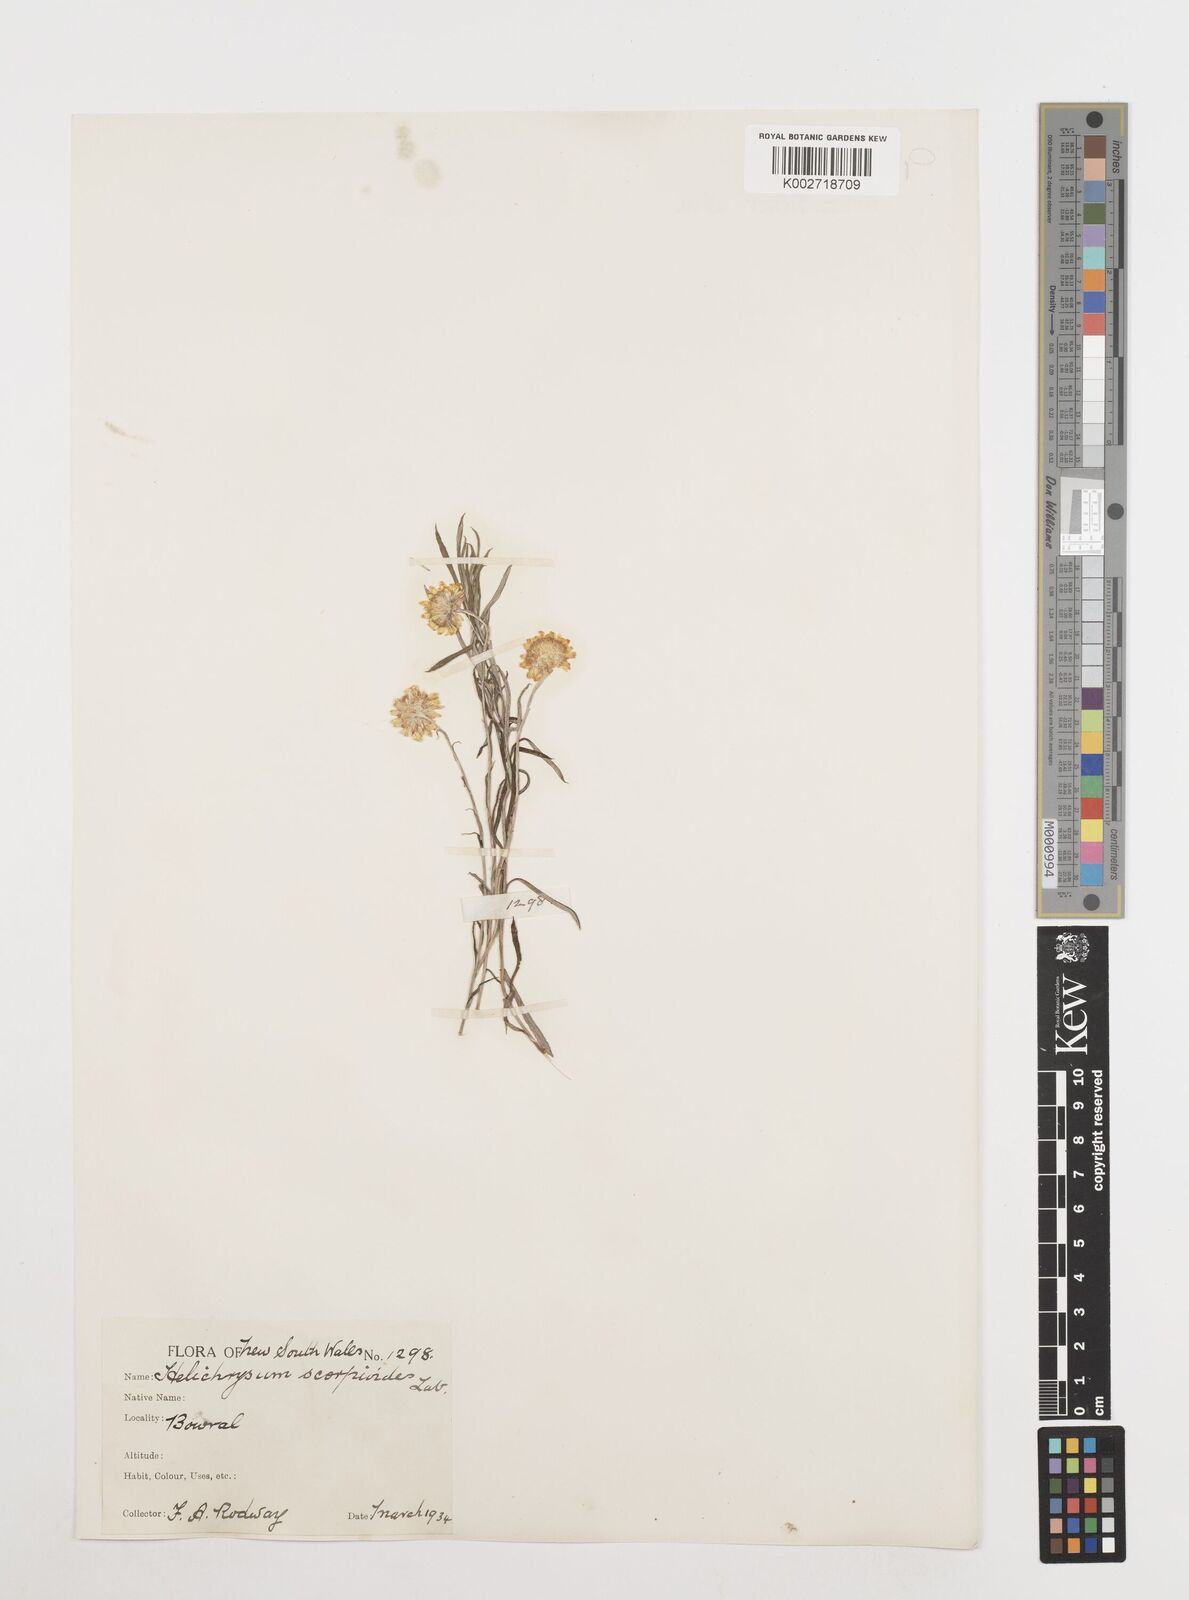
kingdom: Plantae
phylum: Tracheophyta
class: Magnoliopsida
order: Asterales
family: Asteraceae
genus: Coronidium
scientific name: Coronidium scorpioides
